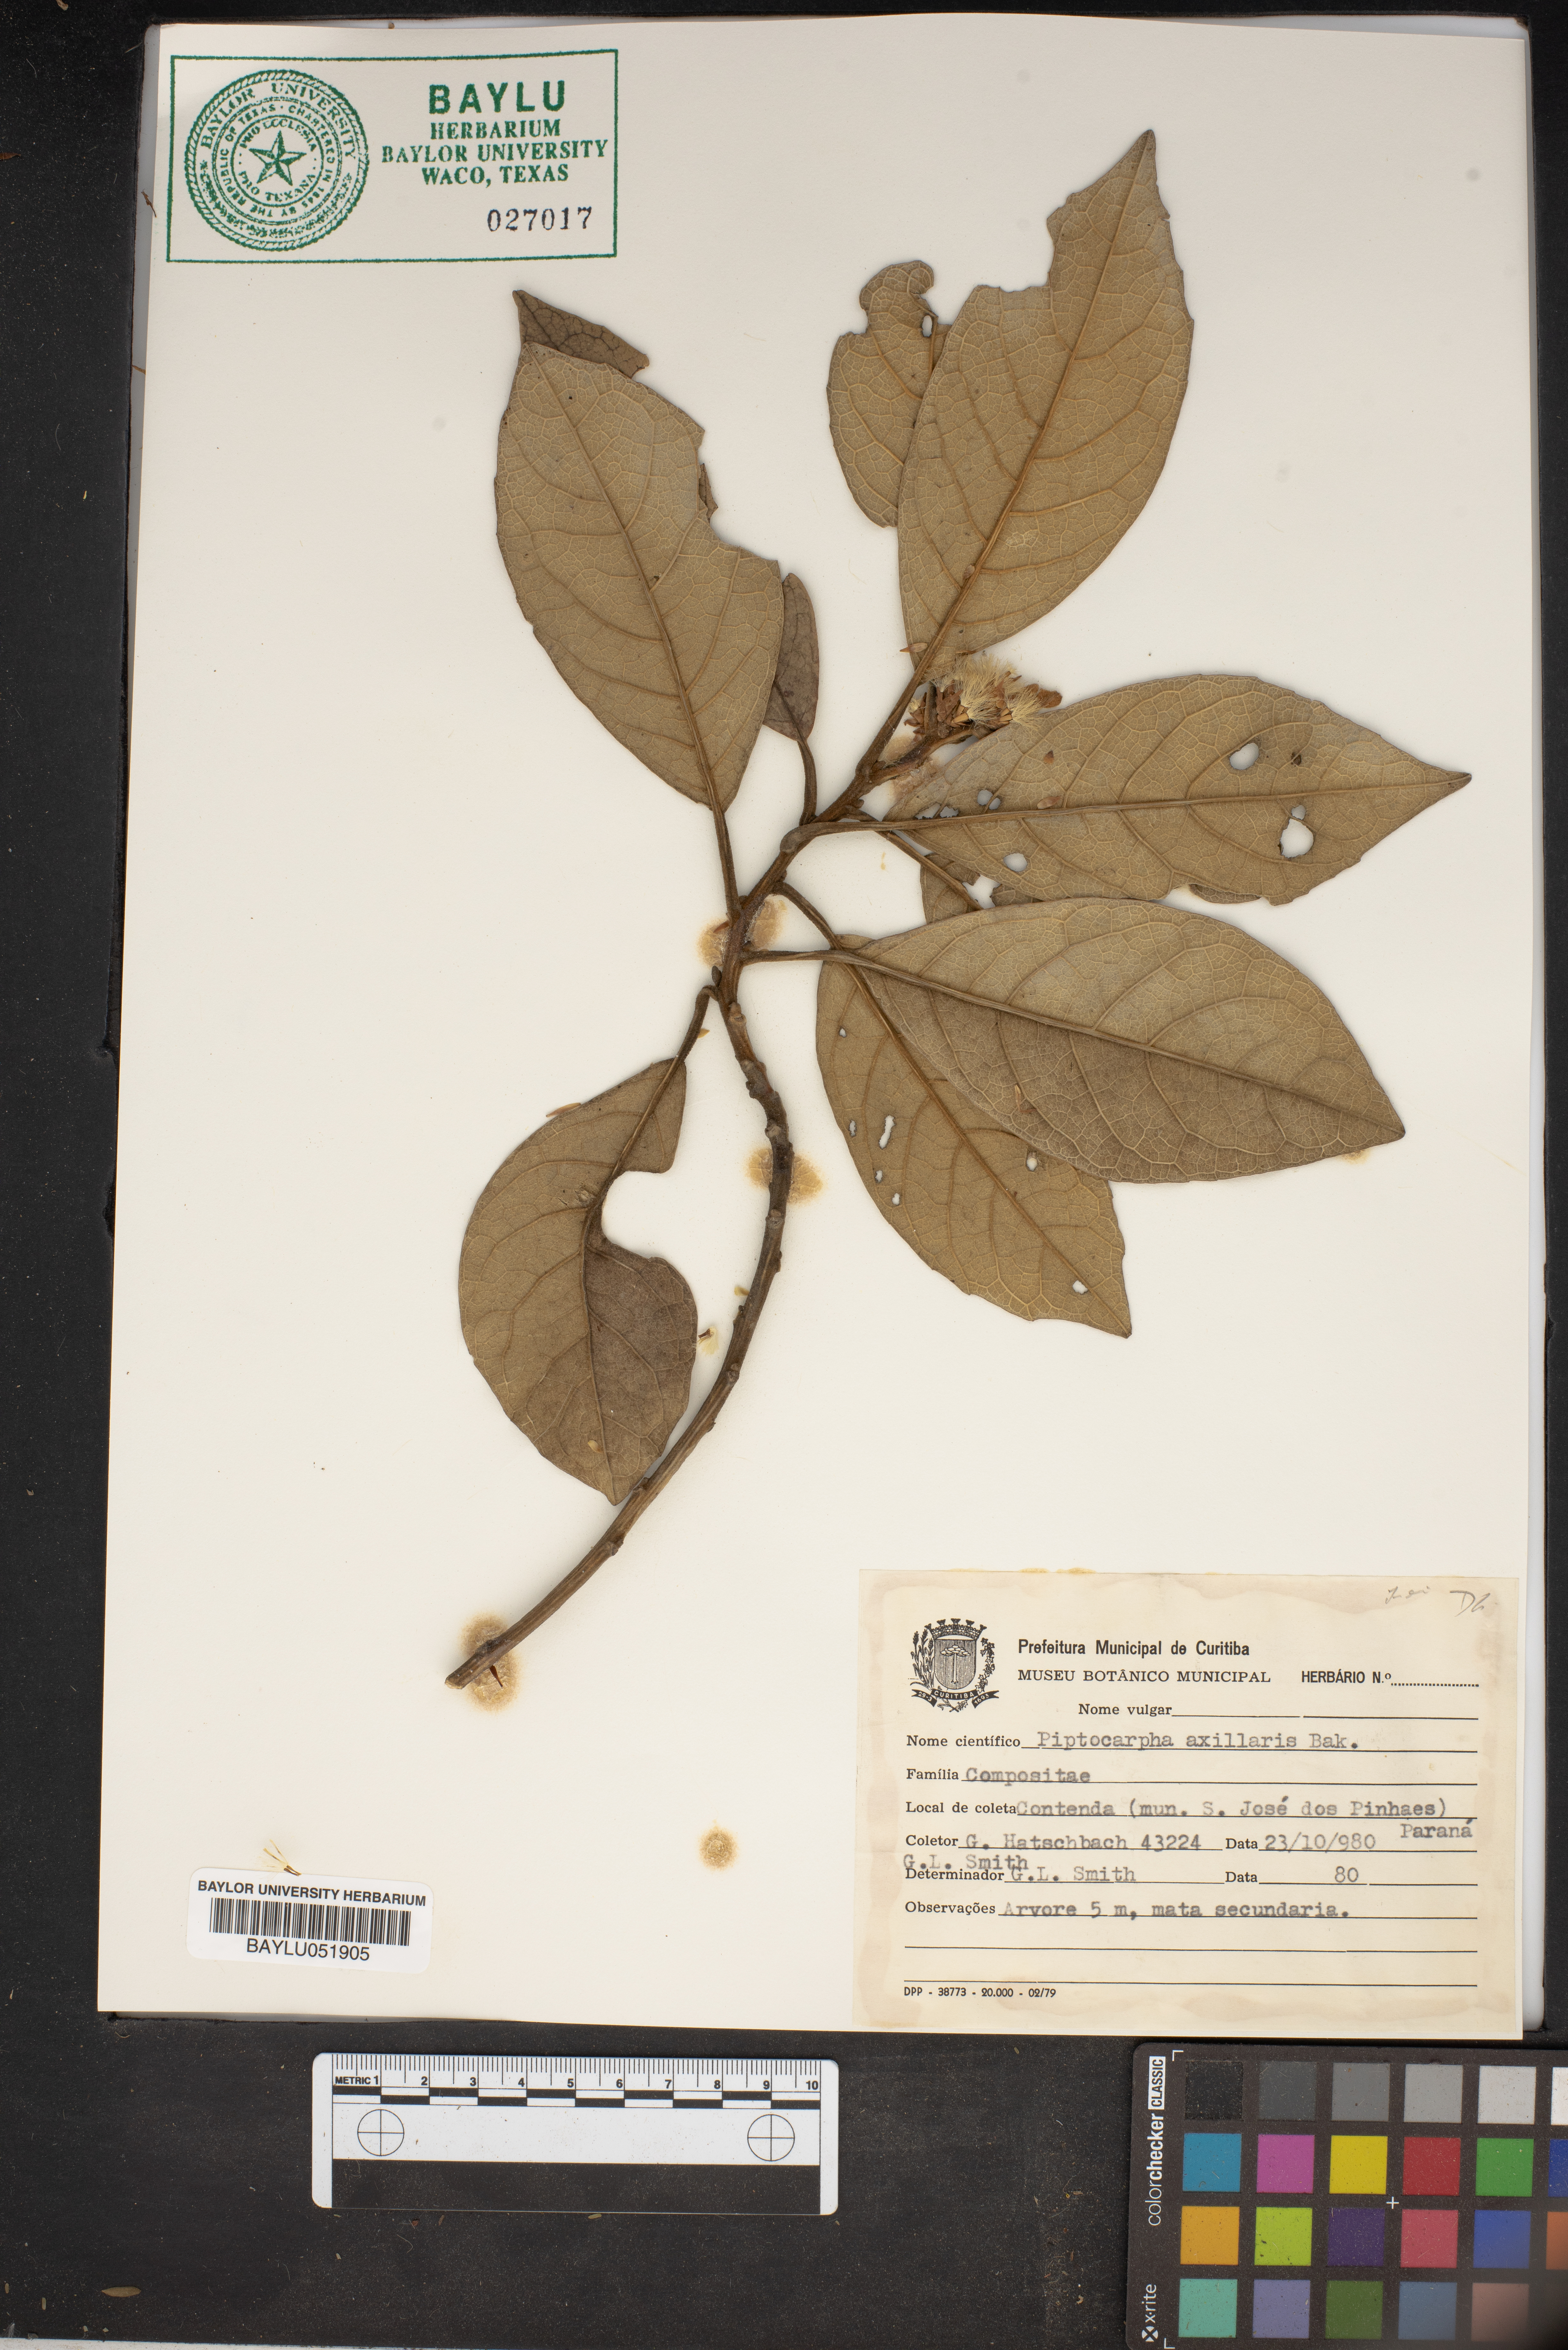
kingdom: Plantae
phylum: Tracheophyta
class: Magnoliopsida
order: Asterales
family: Asteraceae
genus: Piptocarpha
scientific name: Piptocarpha axillaris
